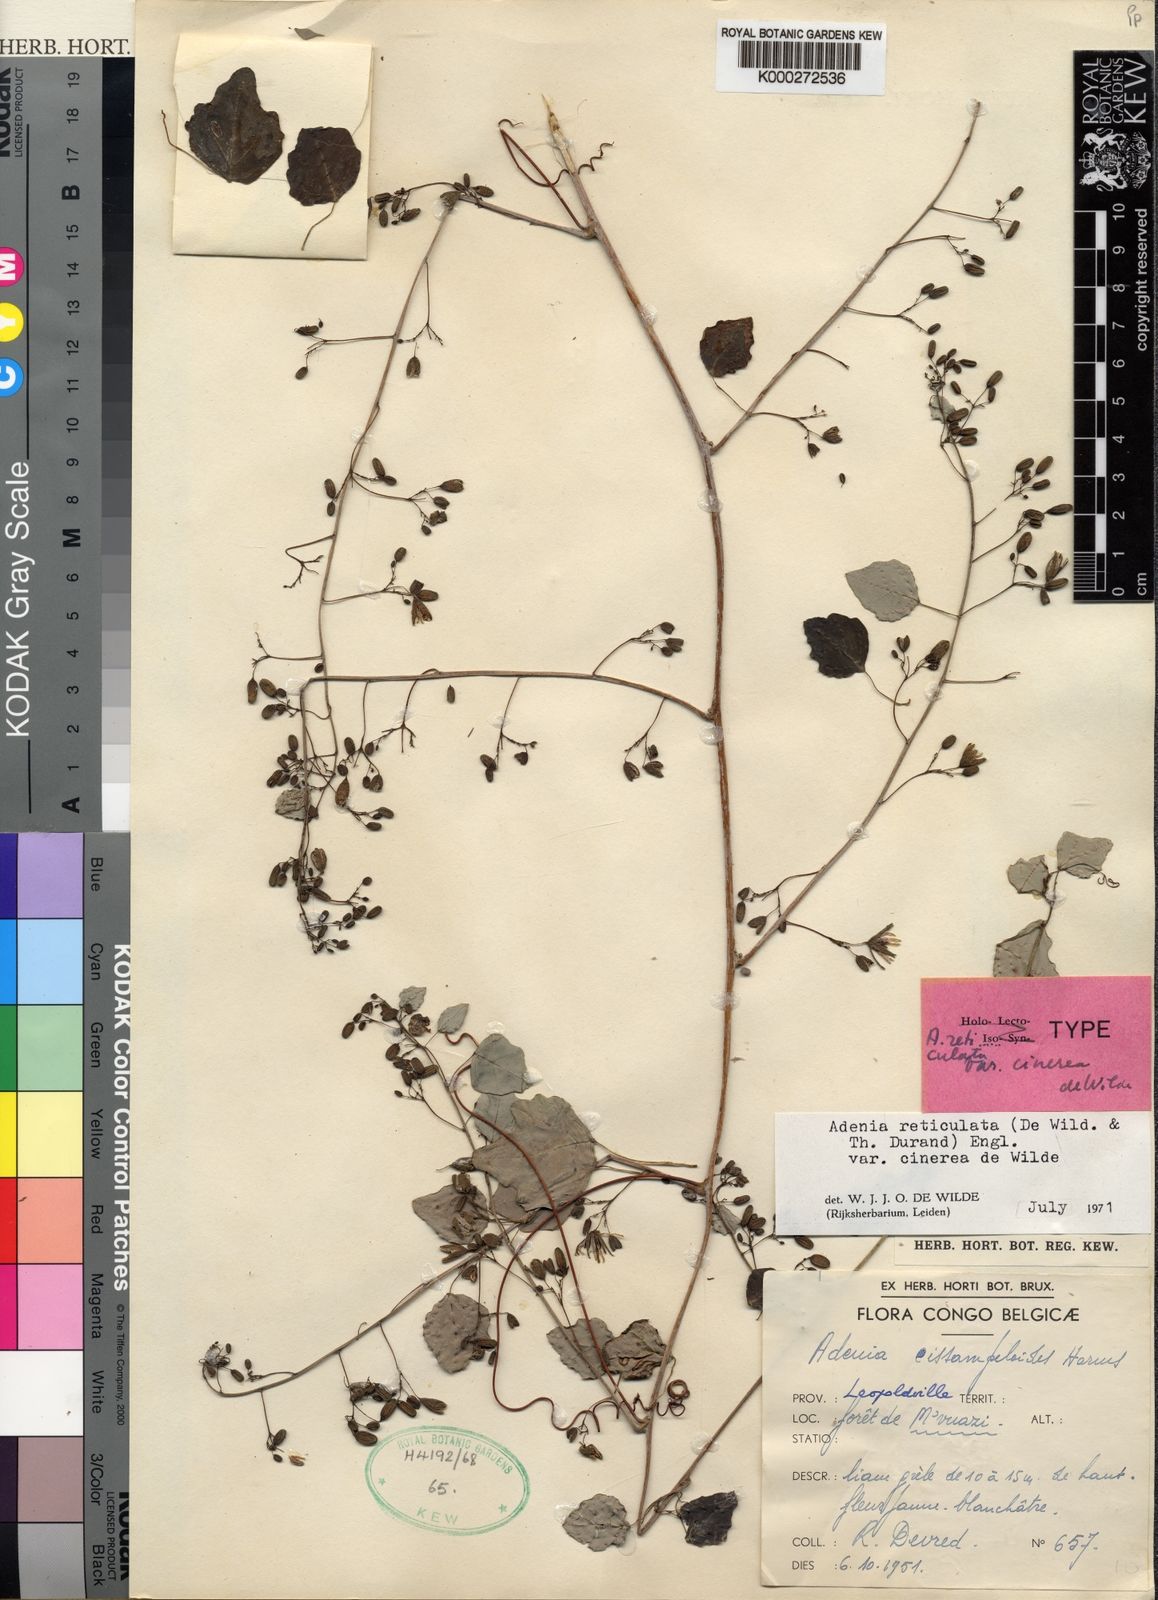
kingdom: Plantae
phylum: Tracheophyta
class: Magnoliopsida
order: Malpighiales
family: Passifloraceae
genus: Adenia
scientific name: Adenia cissampeloides
